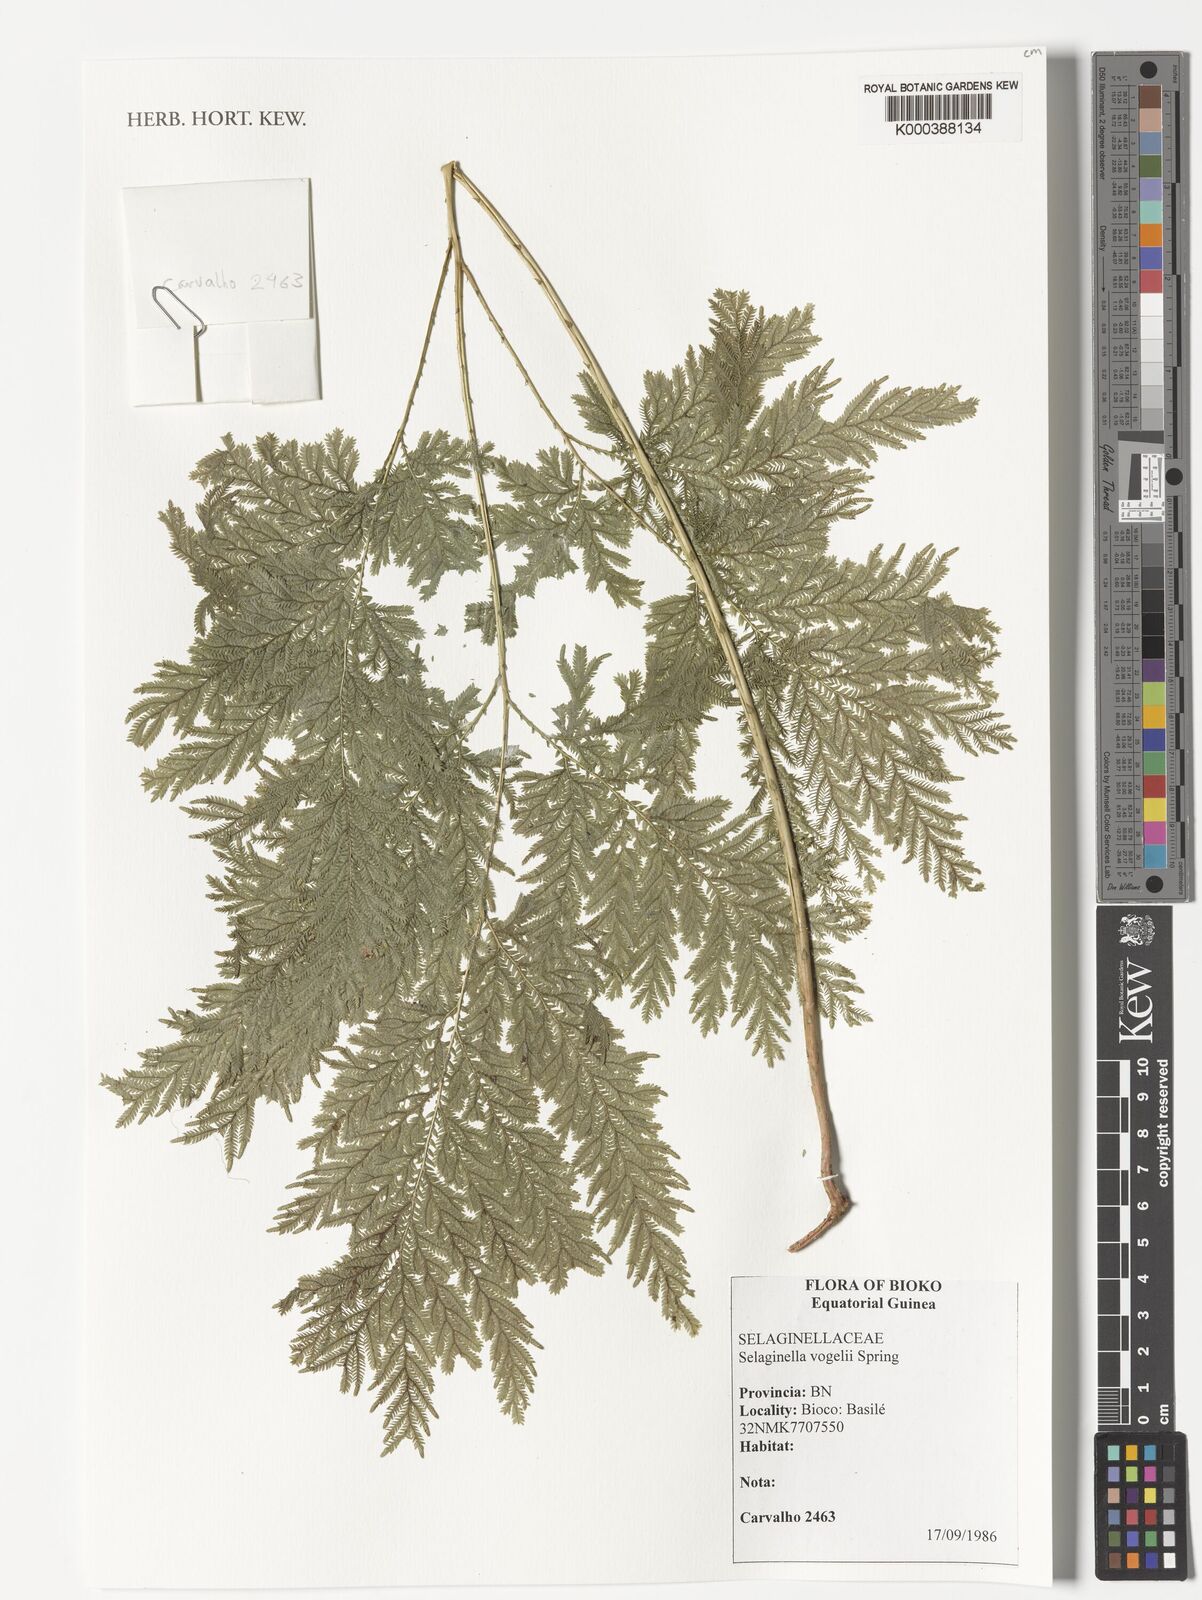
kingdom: Plantae
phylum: Tracheophyta
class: Lycopodiopsida
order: Selaginellales
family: Selaginellaceae
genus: Selaginella
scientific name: Selaginella vogelii
